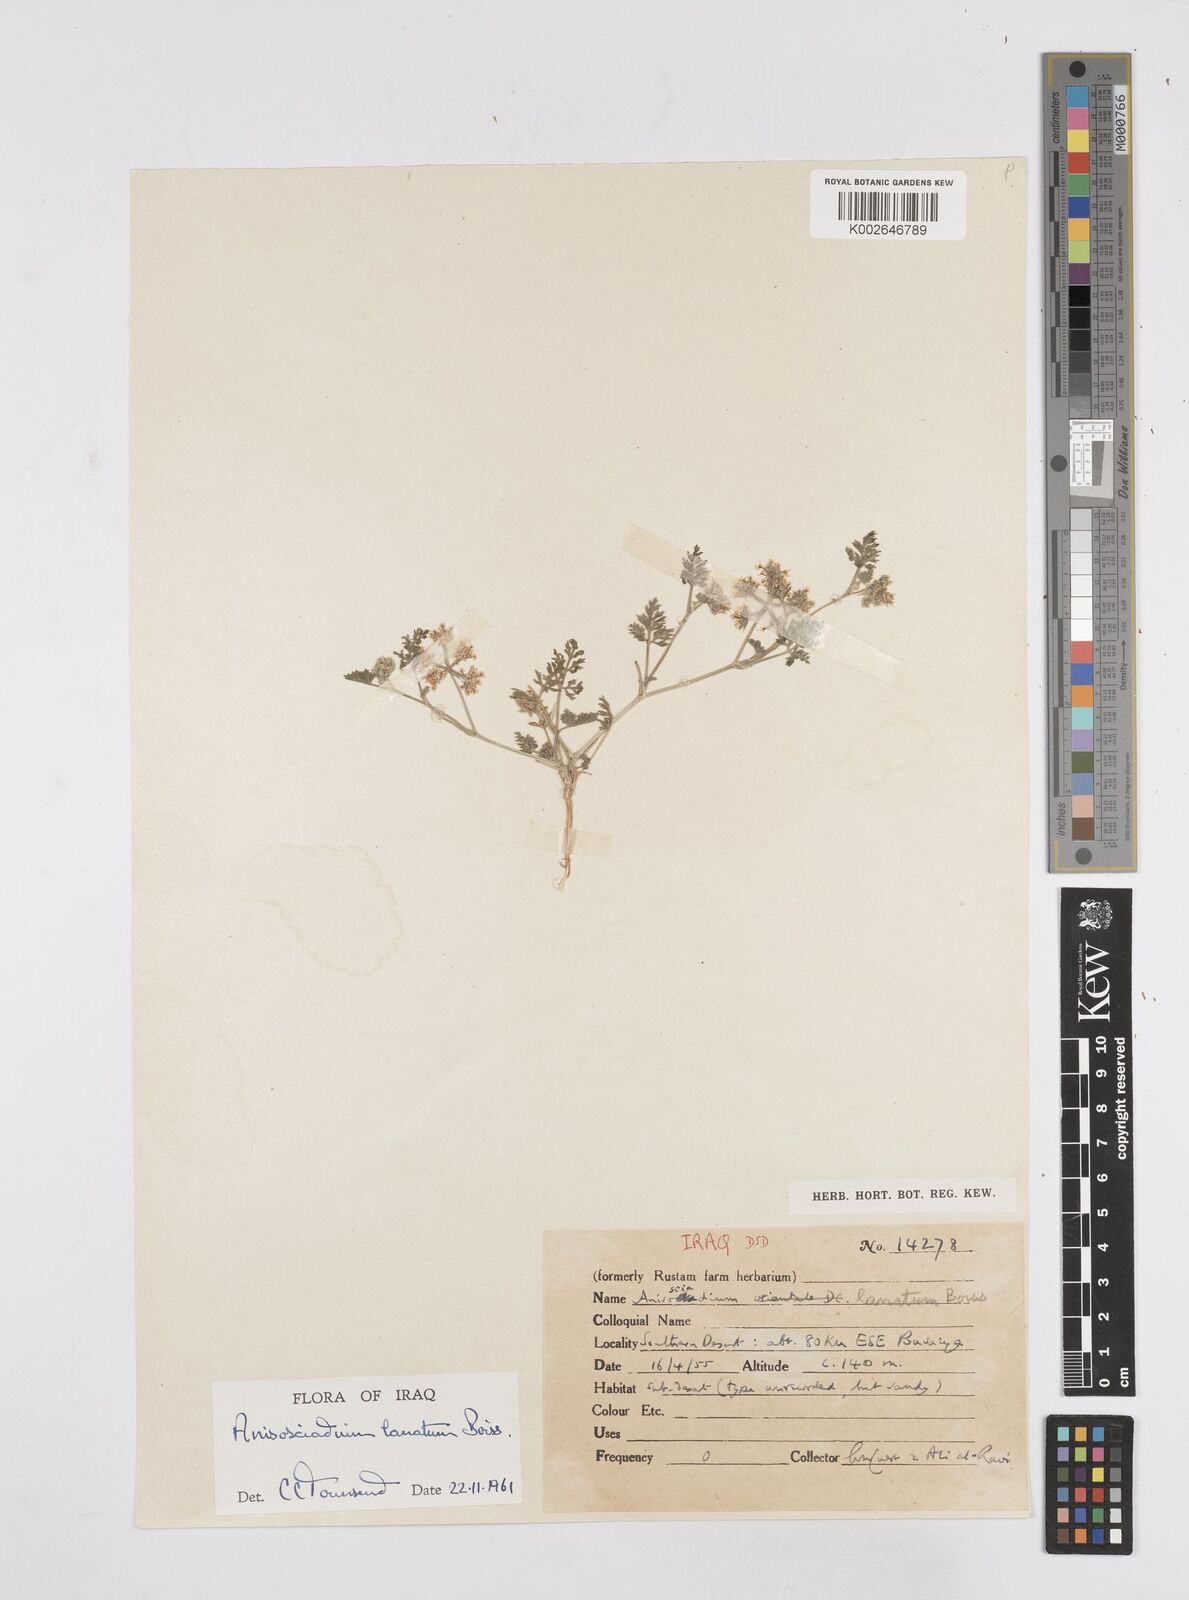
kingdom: Plantae
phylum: Tracheophyta
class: Magnoliopsida
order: Apiales
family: Apiaceae
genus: Anisosciadium
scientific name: Anisosciadium lanatum
